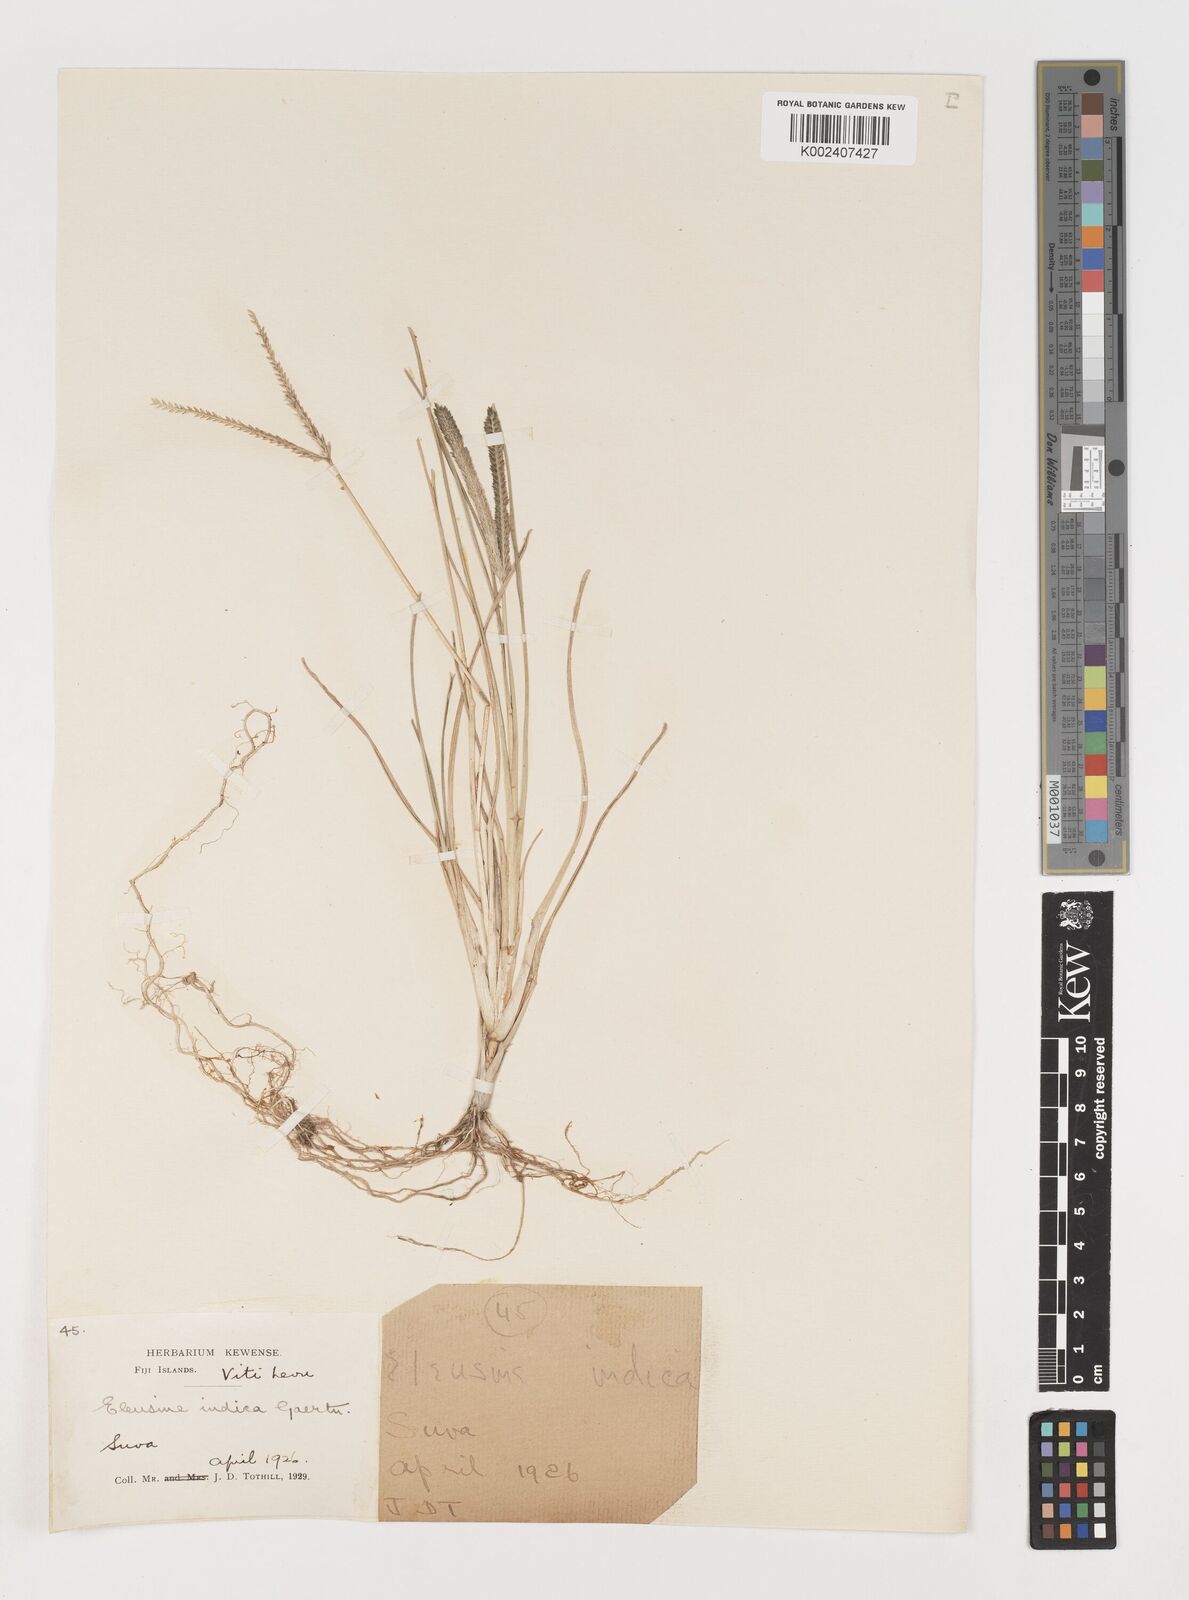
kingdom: Plantae
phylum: Tracheophyta
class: Liliopsida
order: Poales
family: Poaceae
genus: Eleusine
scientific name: Eleusine indica
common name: Yard-grass
